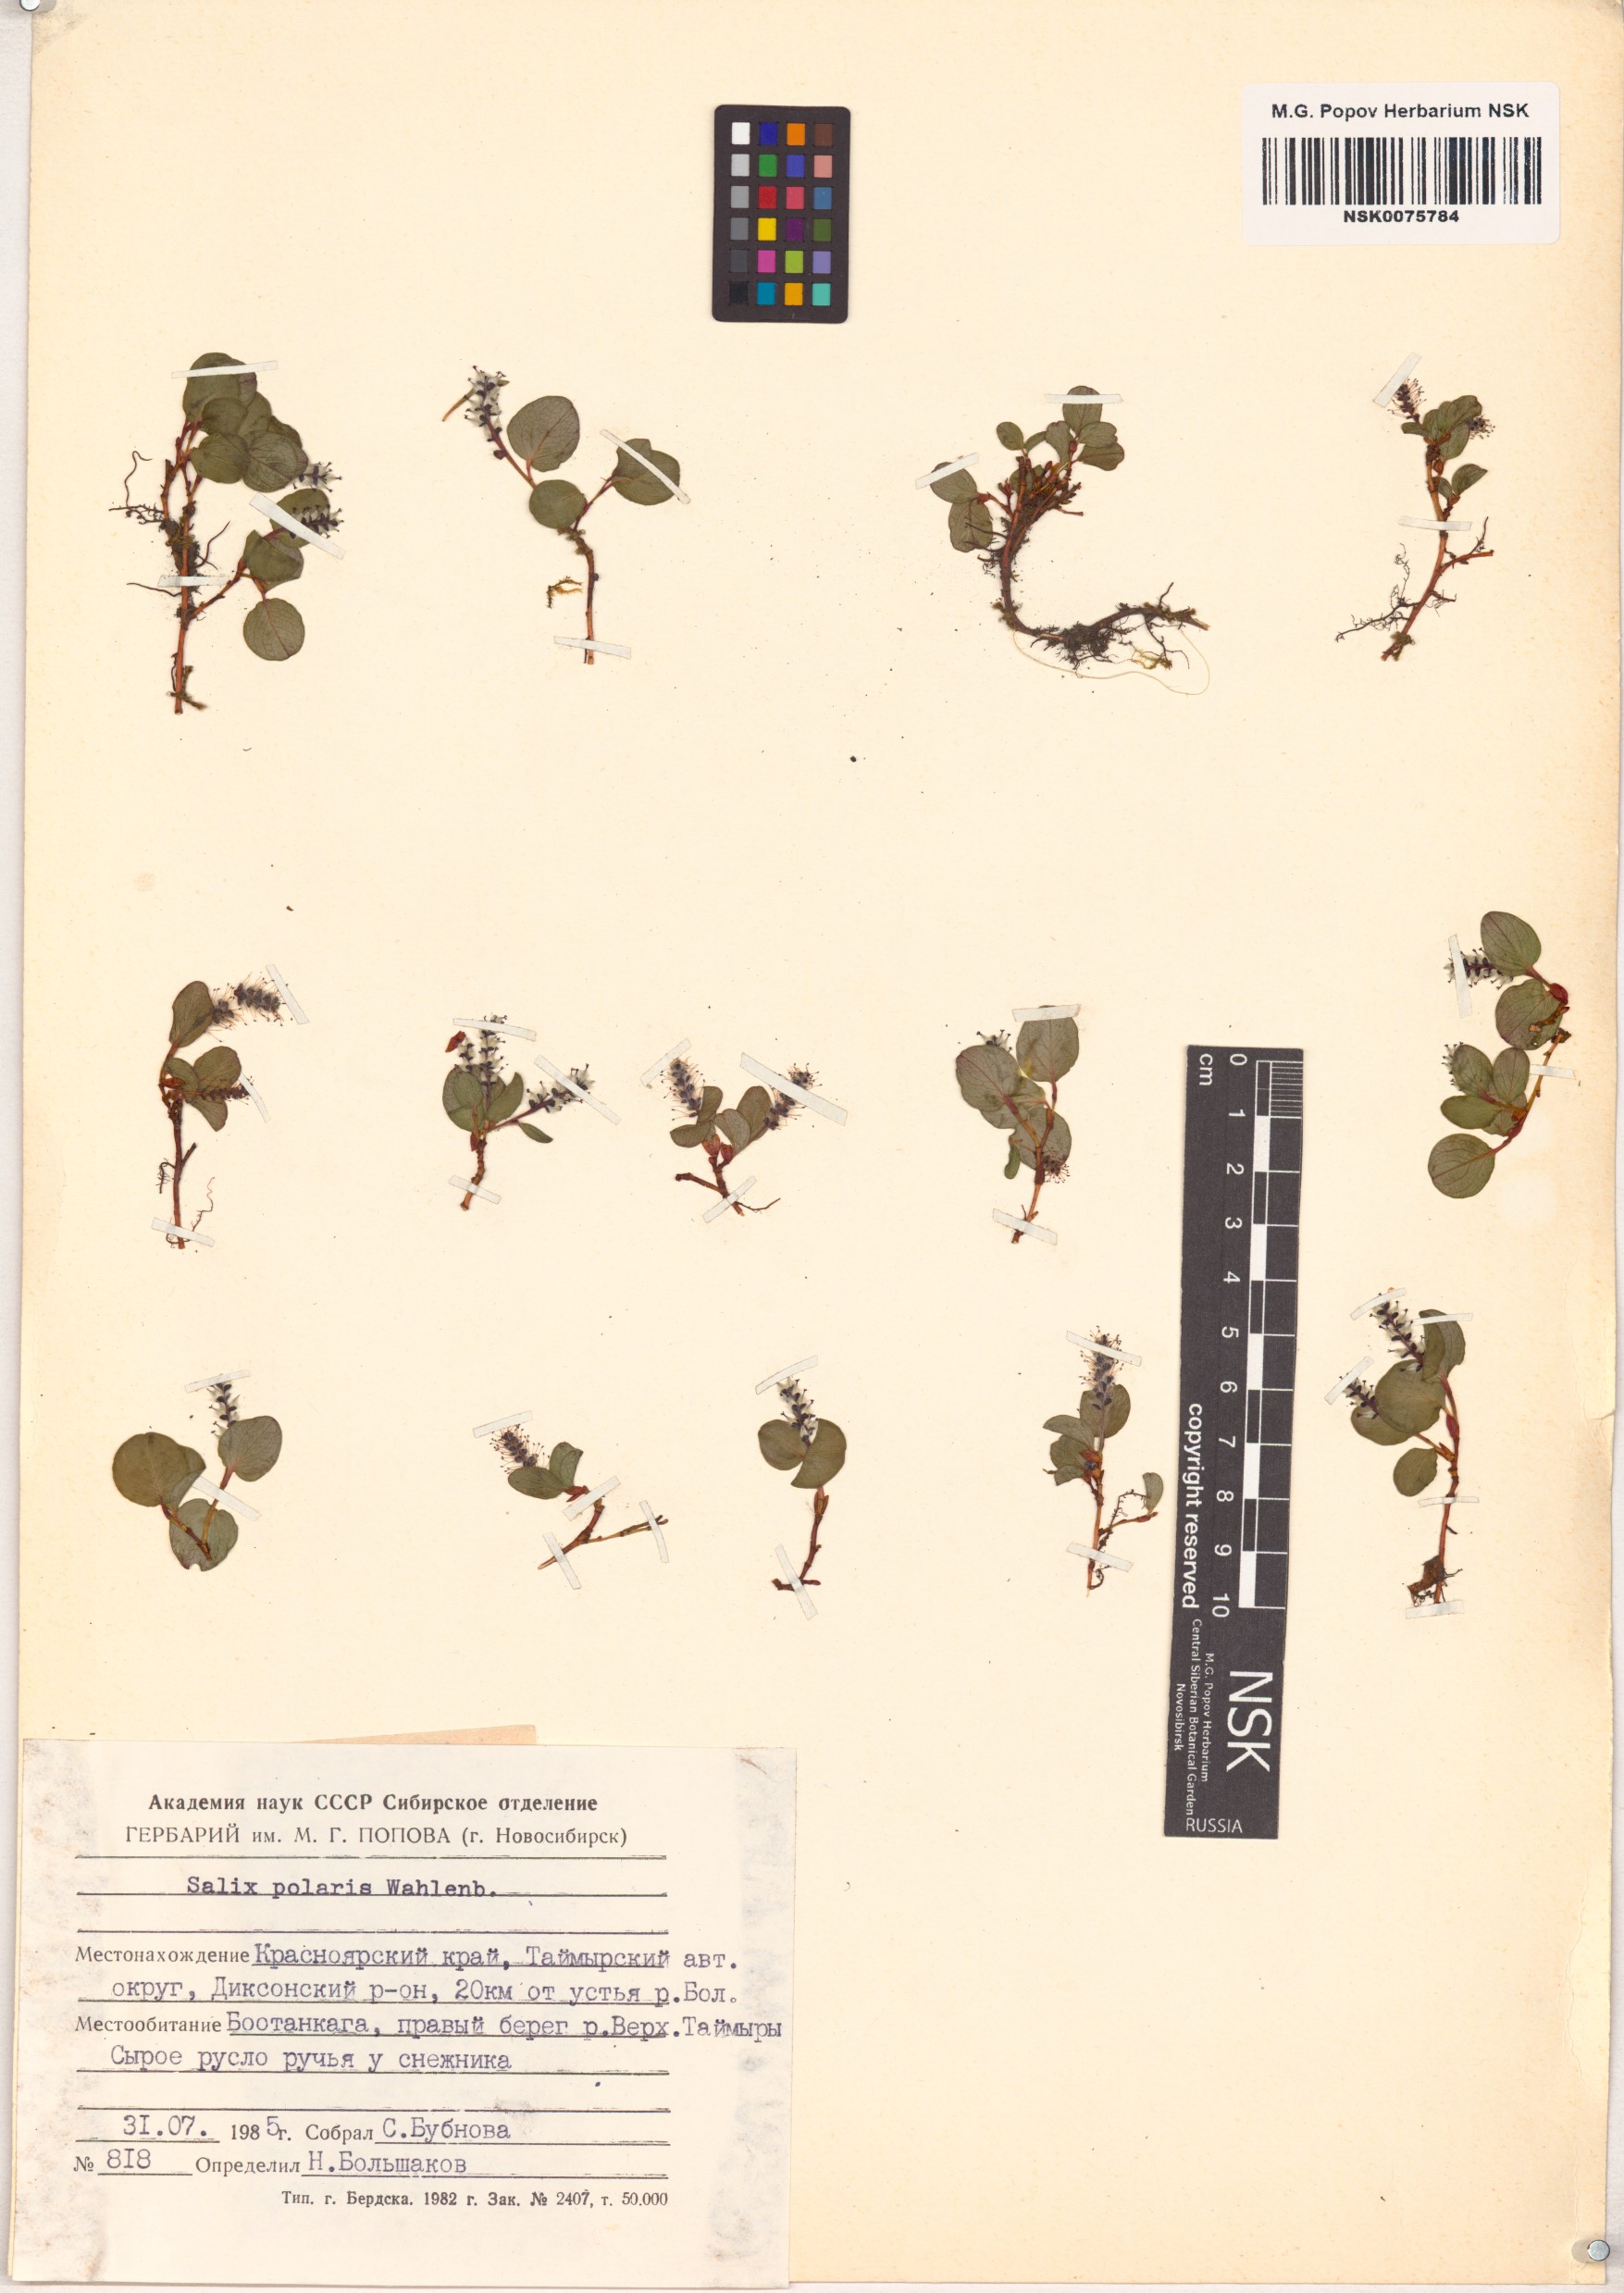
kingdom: Plantae
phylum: Tracheophyta
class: Magnoliopsida
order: Malpighiales
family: Salicaceae
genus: Salix
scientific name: Salix polaris
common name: Polar willow
